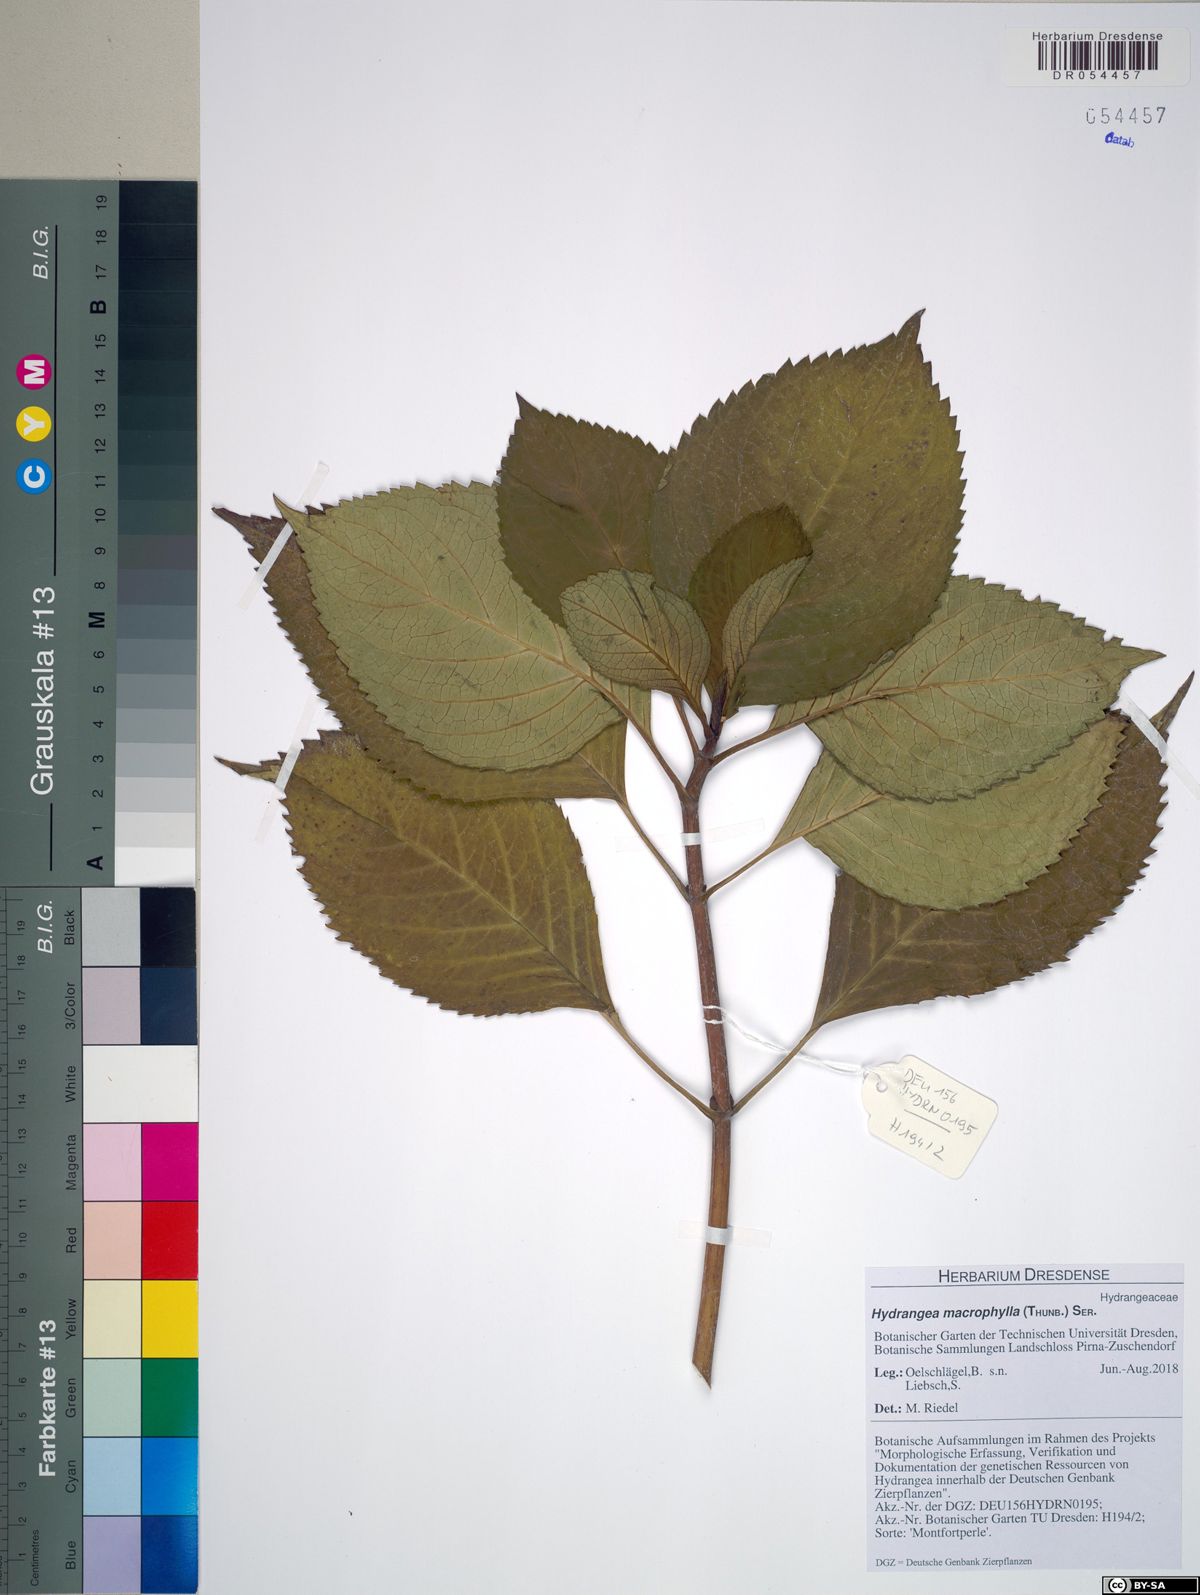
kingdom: Plantae
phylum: Tracheophyta
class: Magnoliopsida
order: Cornales
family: Hydrangeaceae
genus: Hydrangea
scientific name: Hydrangea macrophylla
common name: Hydrangea
